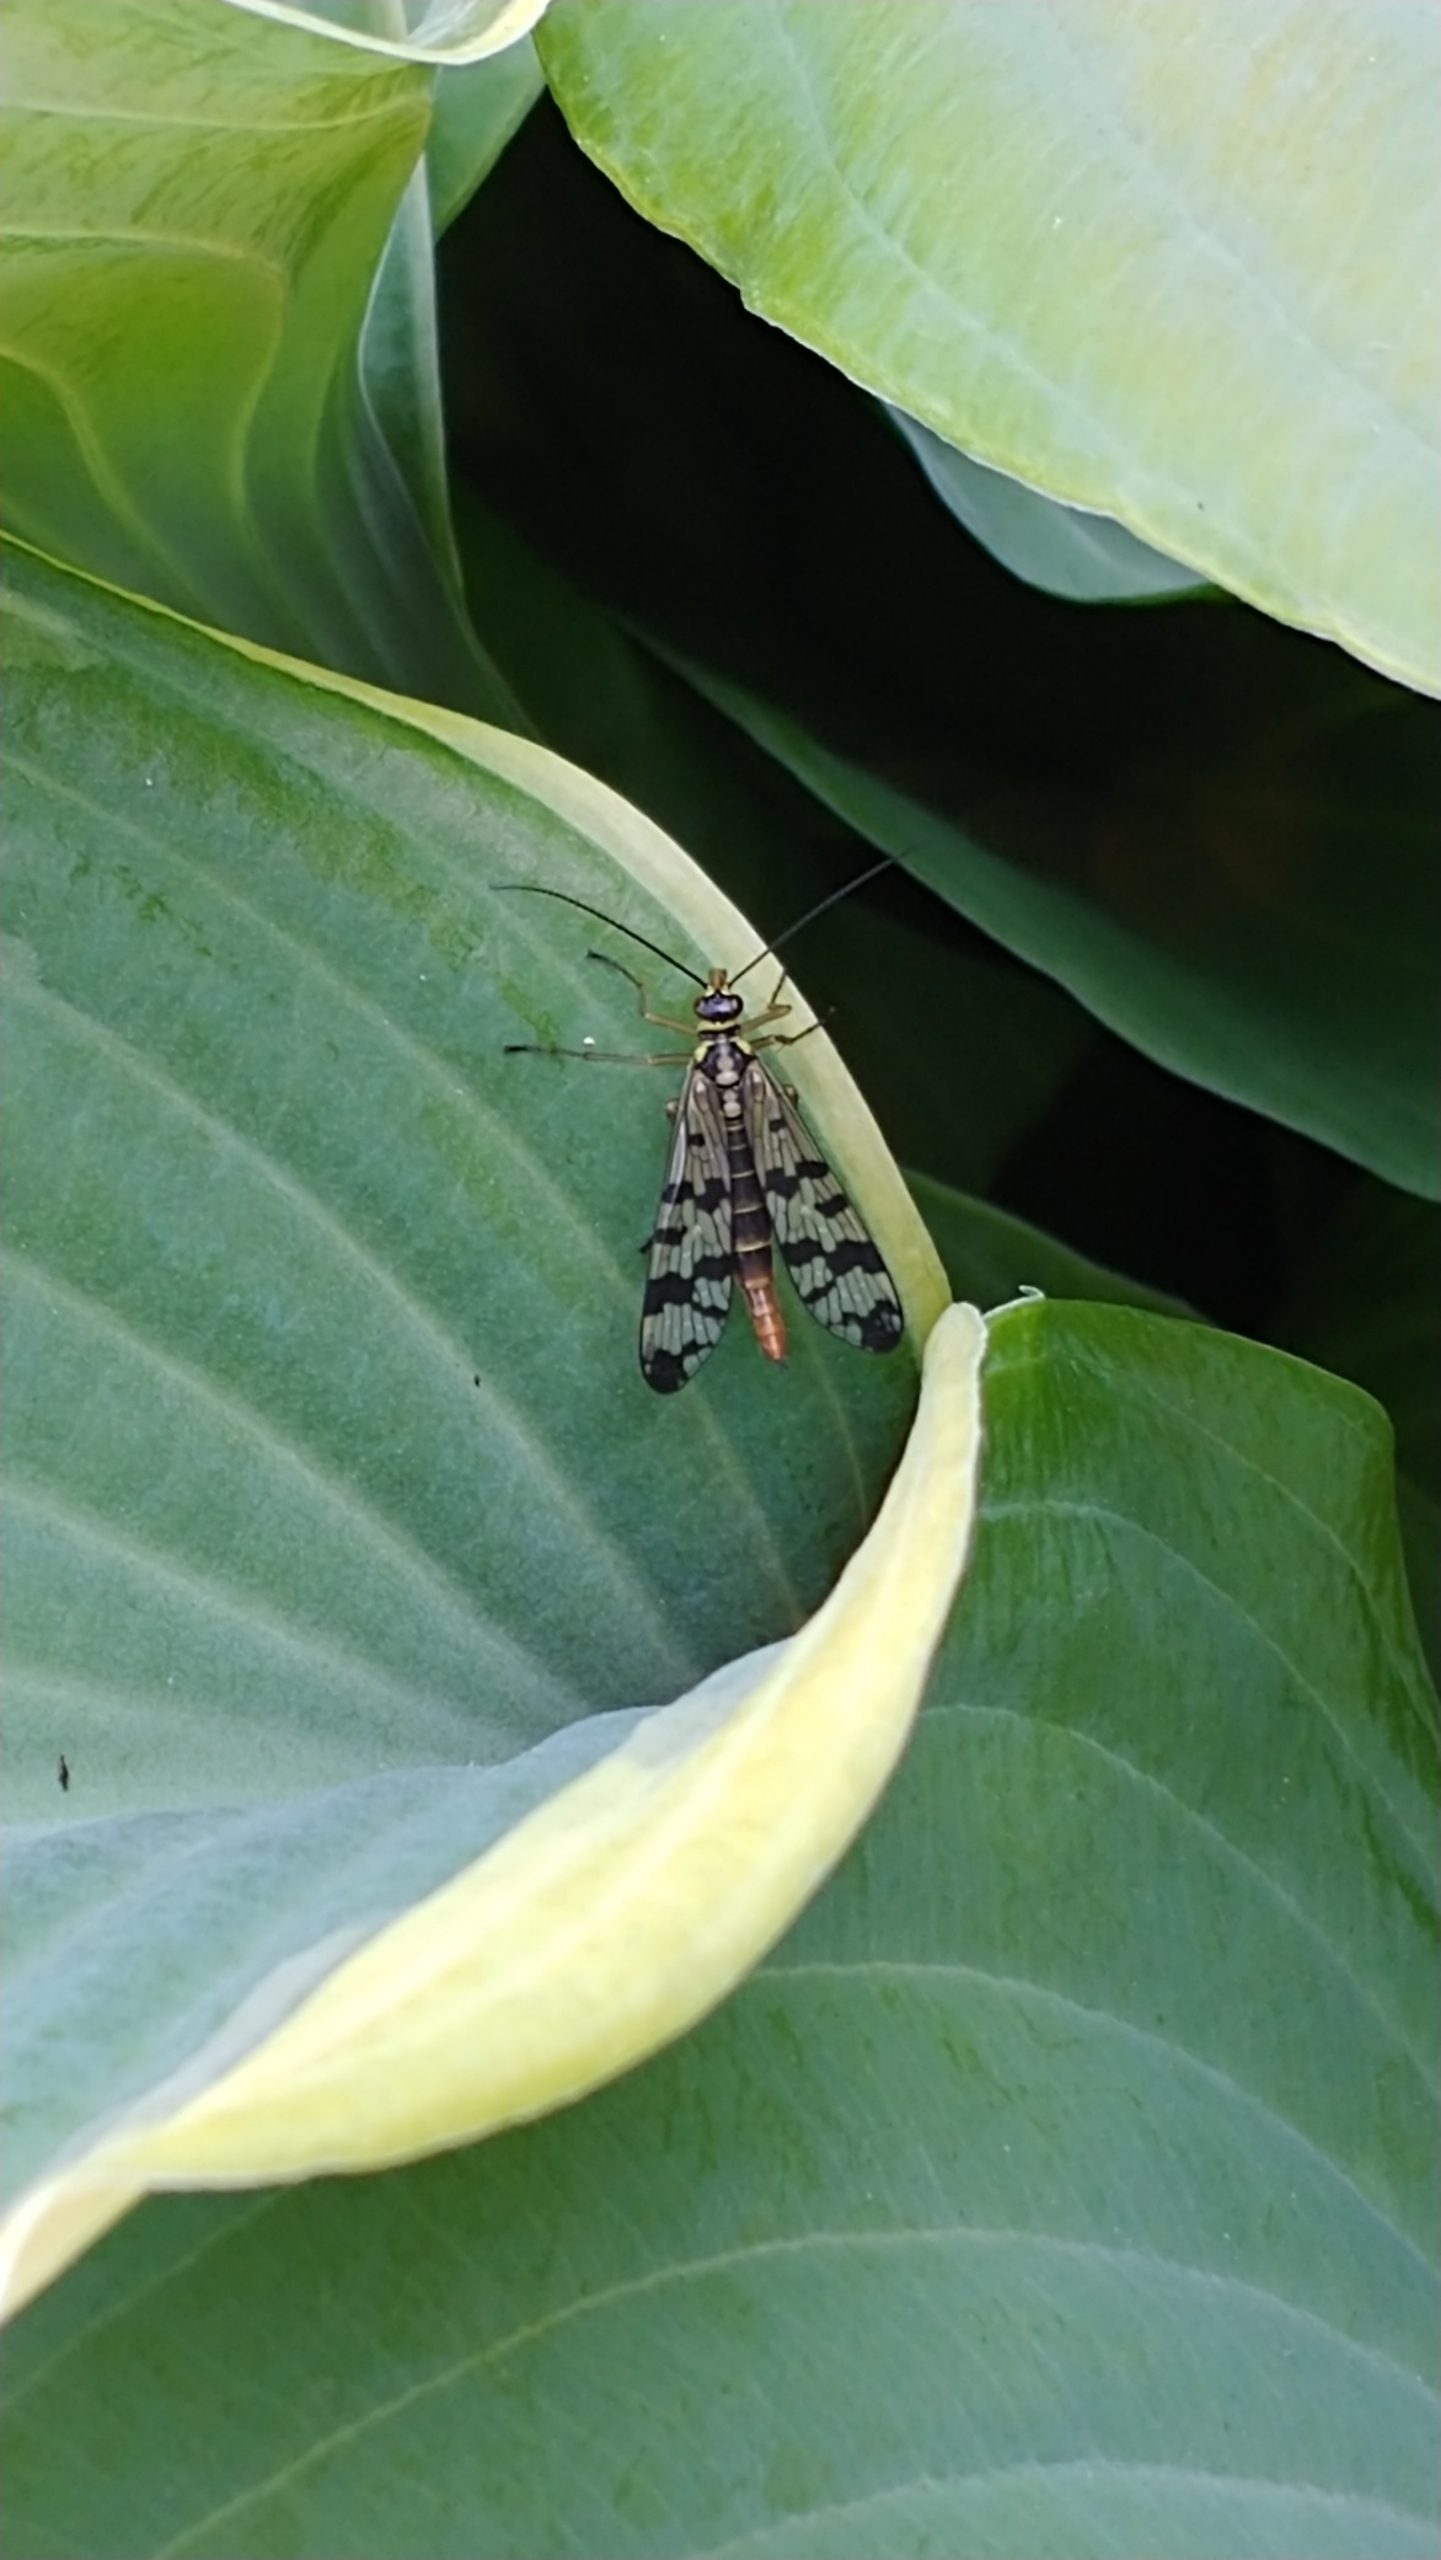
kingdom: Animalia
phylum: Arthropoda
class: Insecta
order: Mecoptera
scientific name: Mecoptera
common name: Skorpionsfluer
